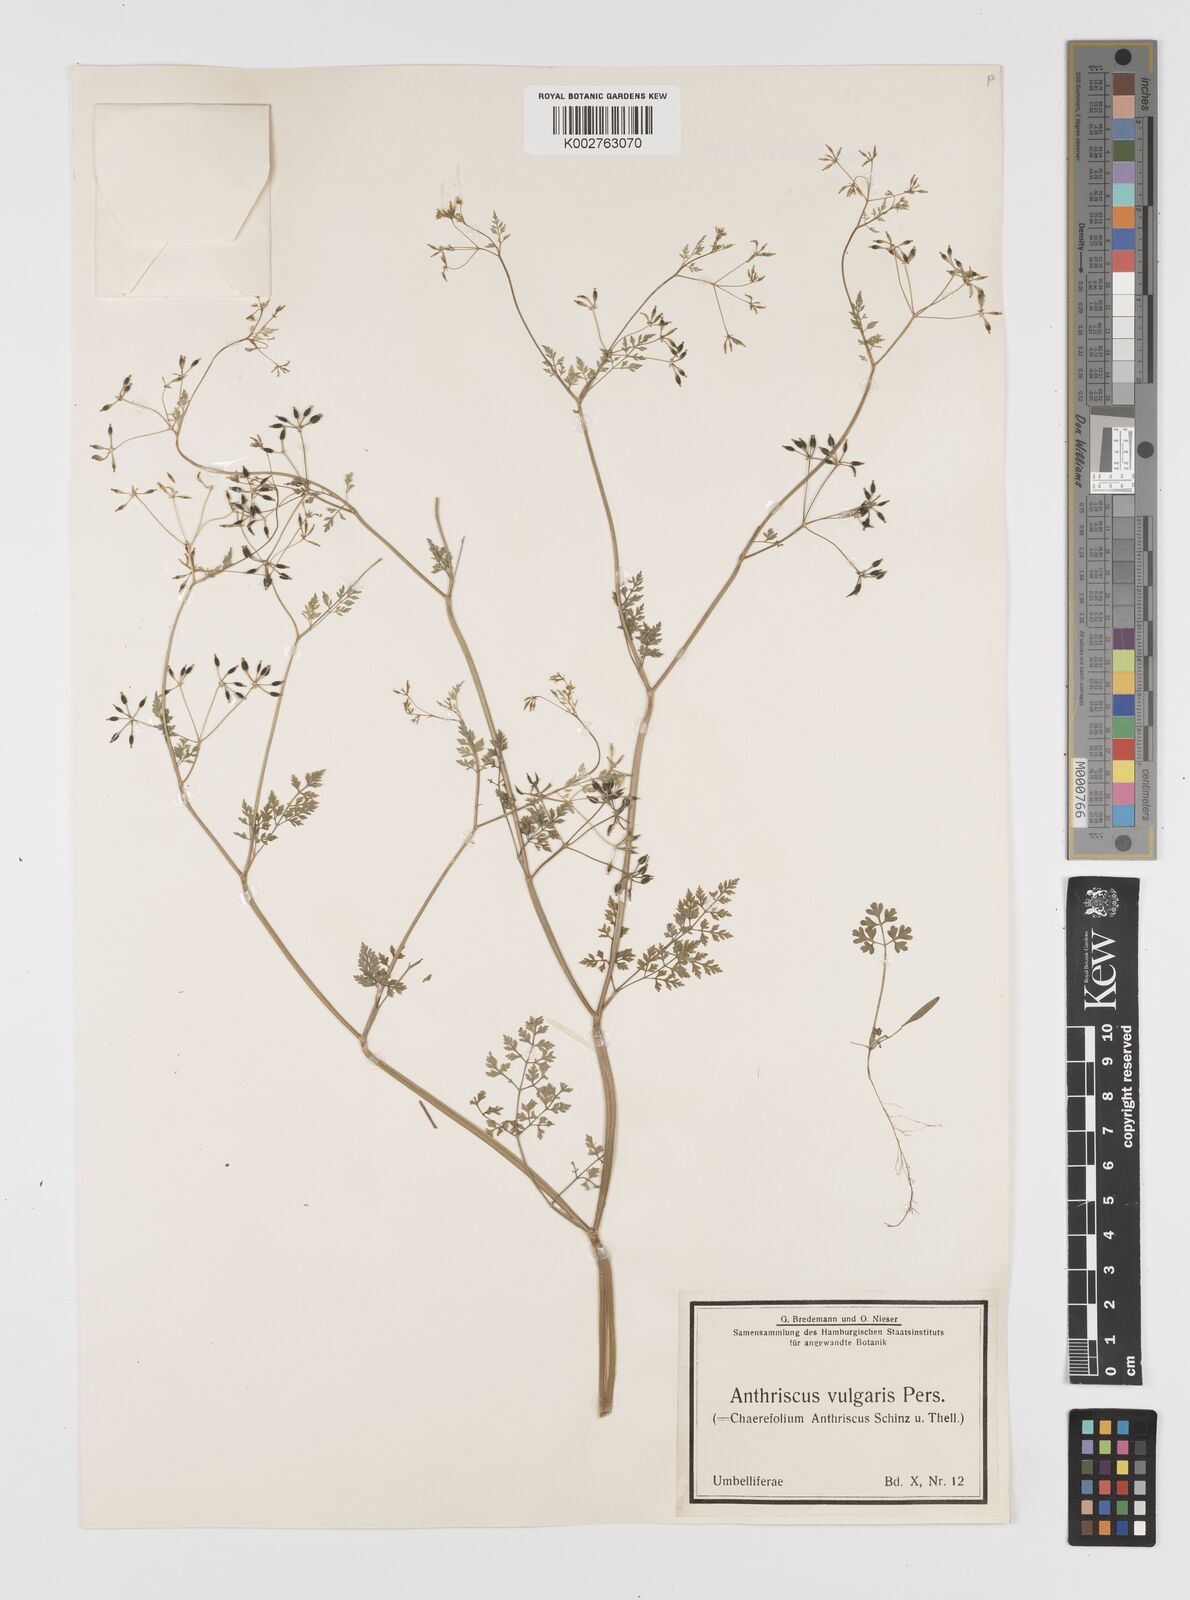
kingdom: Plantae
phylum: Tracheophyta
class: Magnoliopsida
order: Apiales
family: Apiaceae
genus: Anthriscus
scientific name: Anthriscus caucalis
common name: Bur chervil
